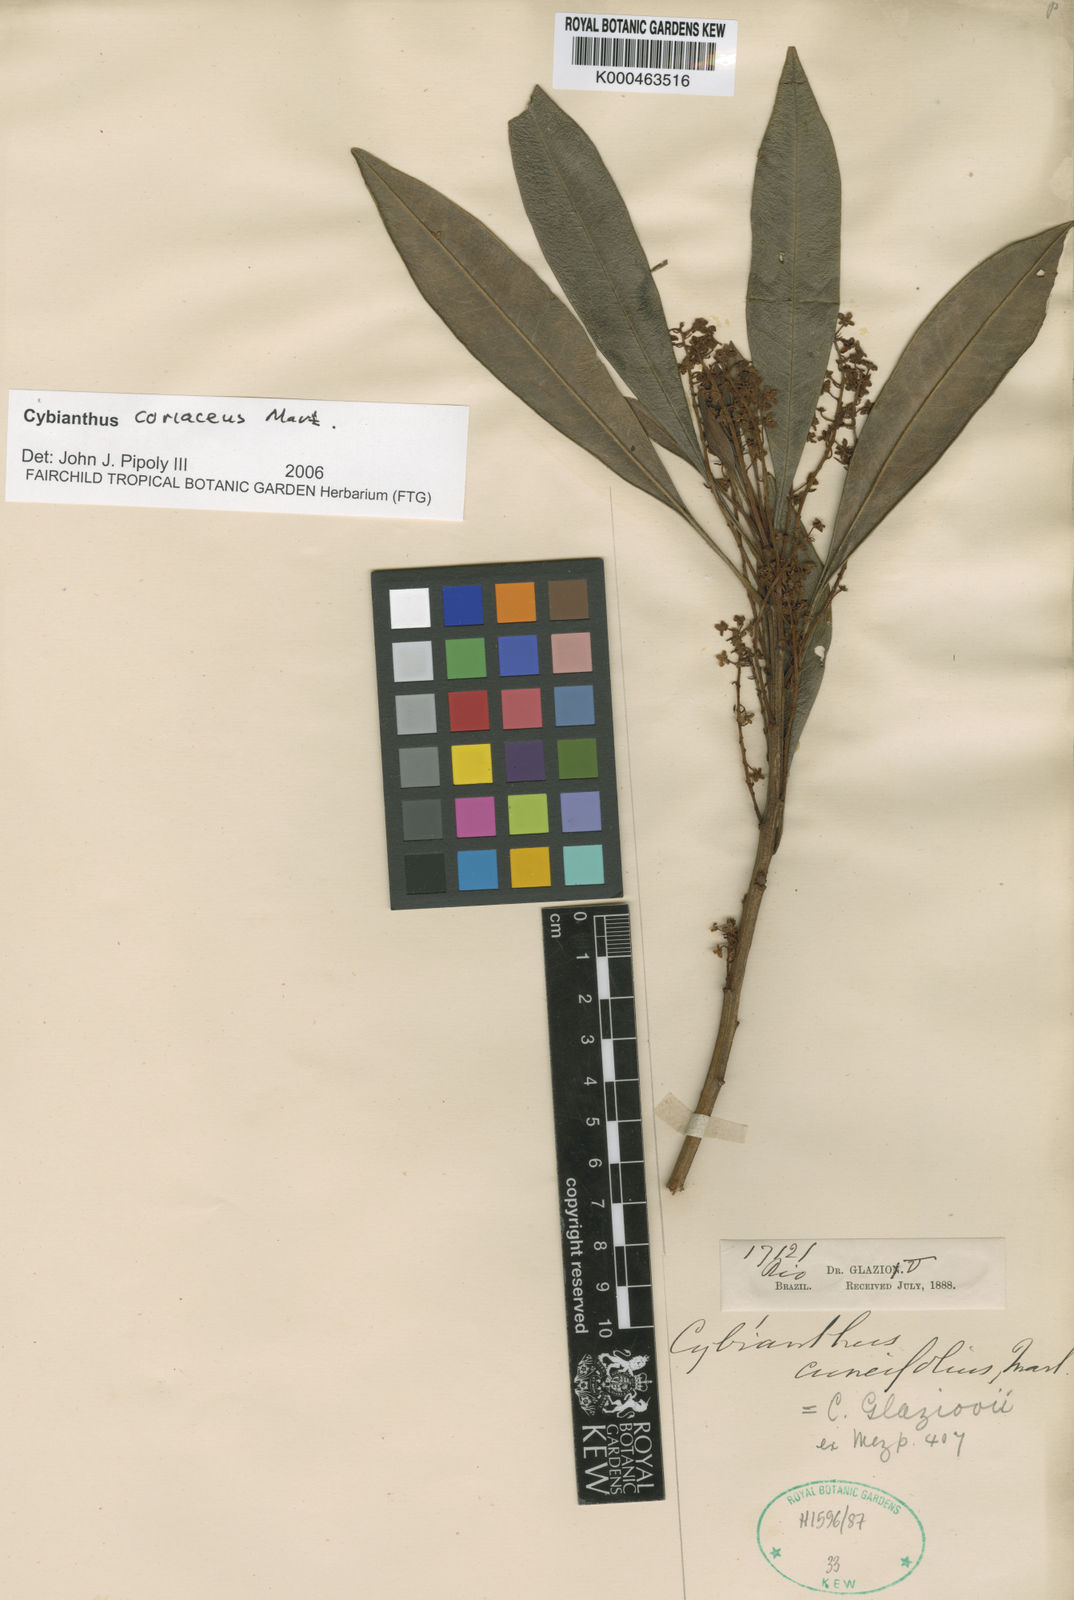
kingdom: Plantae
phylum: Tracheophyta
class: Magnoliopsida
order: Ericales
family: Primulaceae
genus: Cybianthus
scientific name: Cybianthus coriaceus
